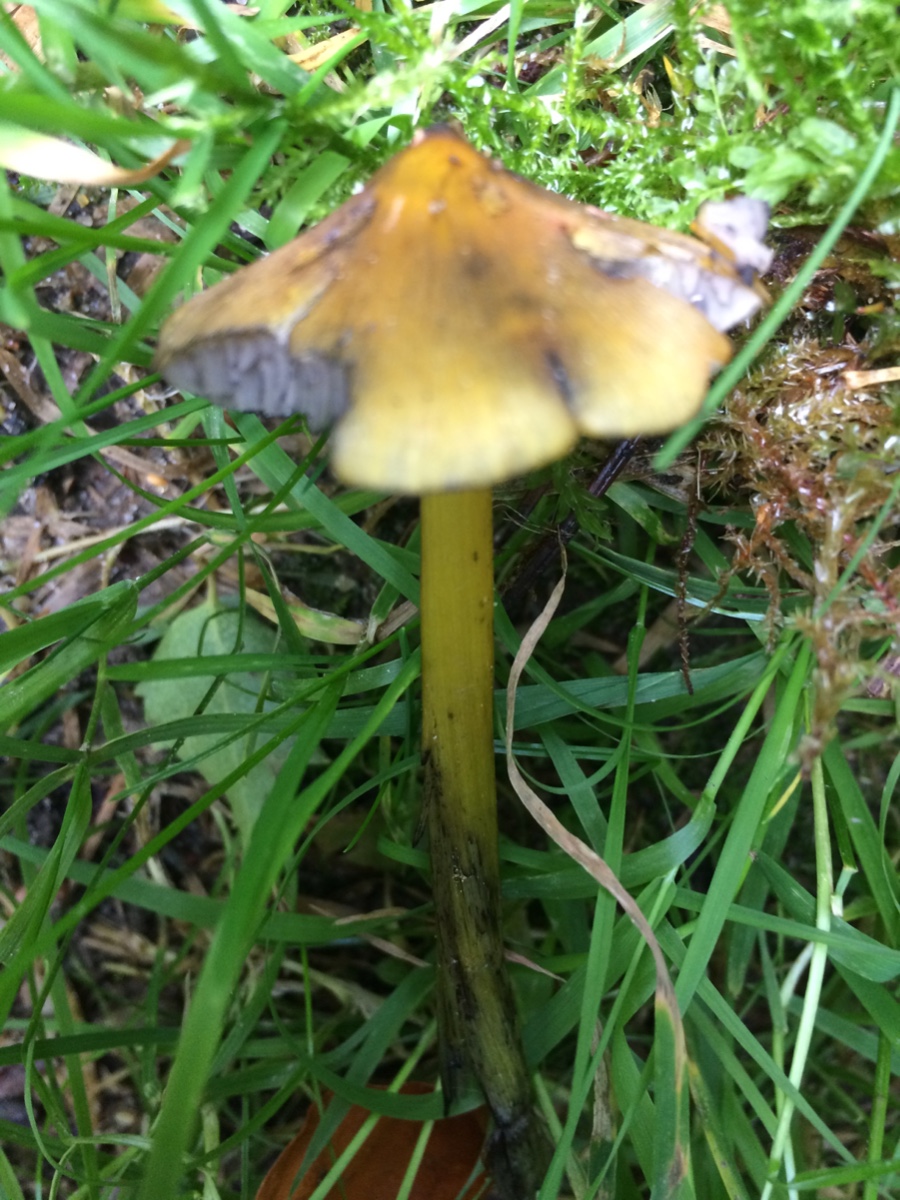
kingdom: Fungi
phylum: Basidiomycota
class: Agaricomycetes
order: Agaricales
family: Hygrophoraceae
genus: Hygrocybe
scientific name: Hygrocybe conica
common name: kegle-vokshat
